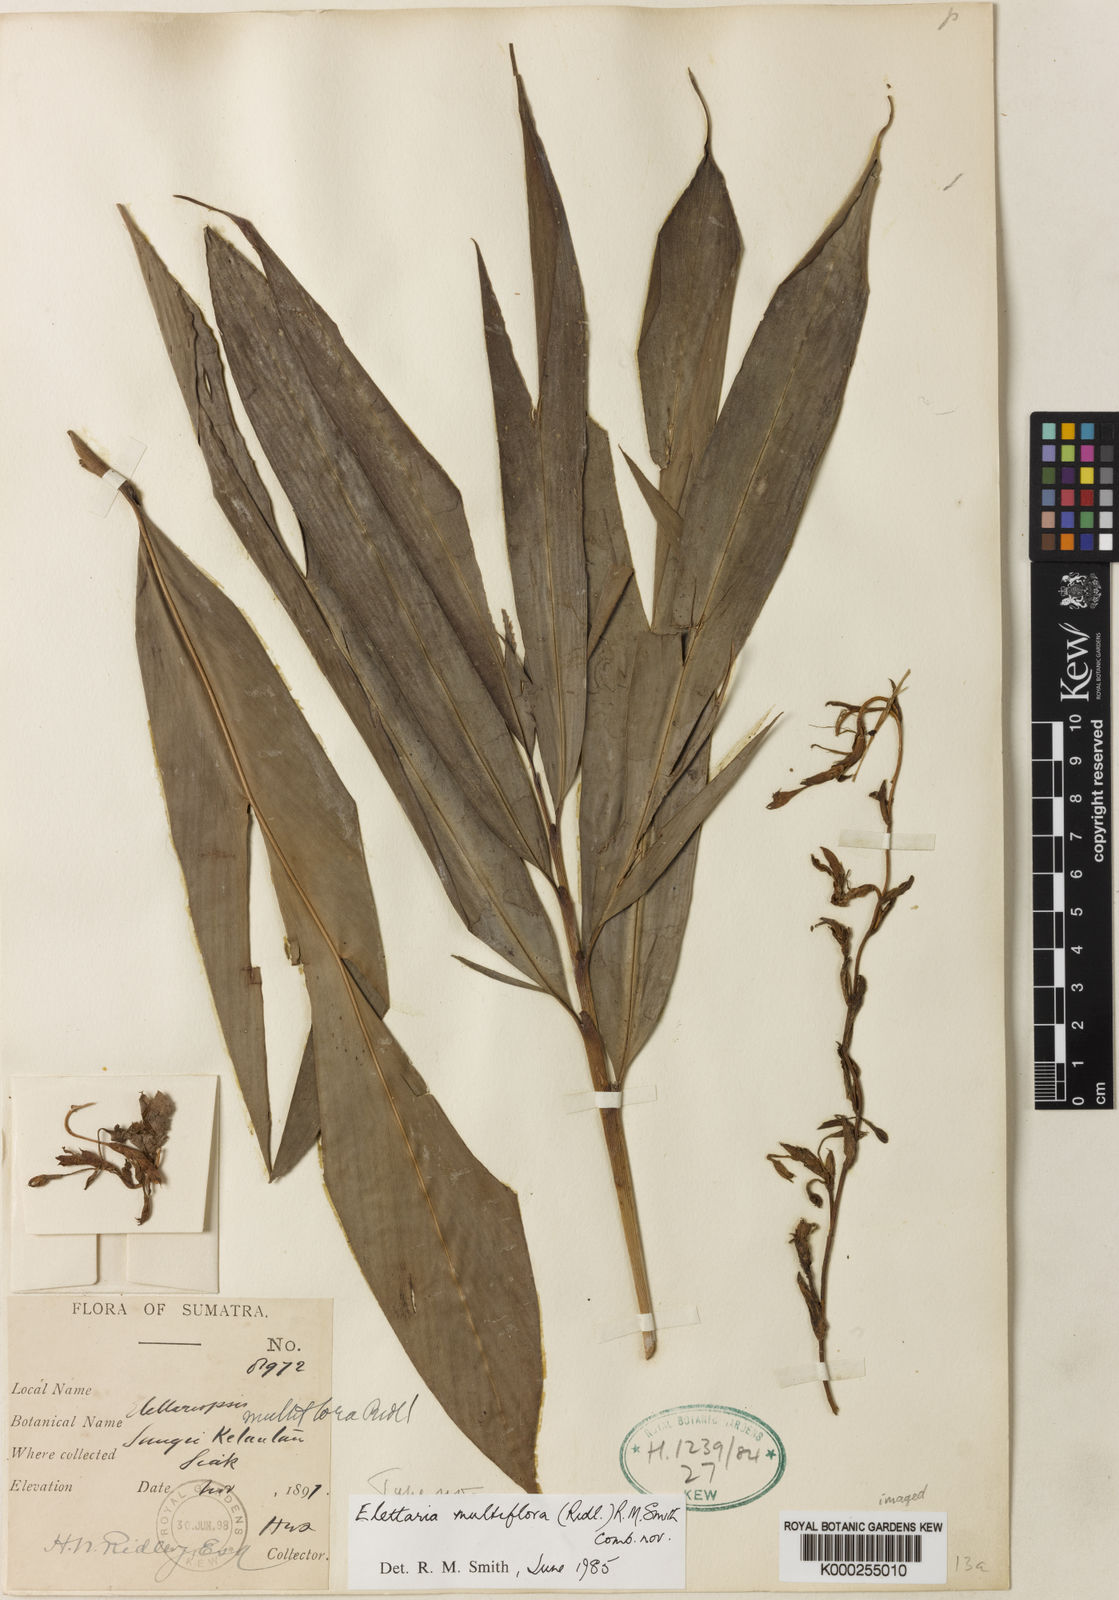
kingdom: Plantae
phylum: Tracheophyta
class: Liliopsida
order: Zingiberales
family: Zingiberaceae
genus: Sulettaria
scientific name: Sulettaria multiflora
